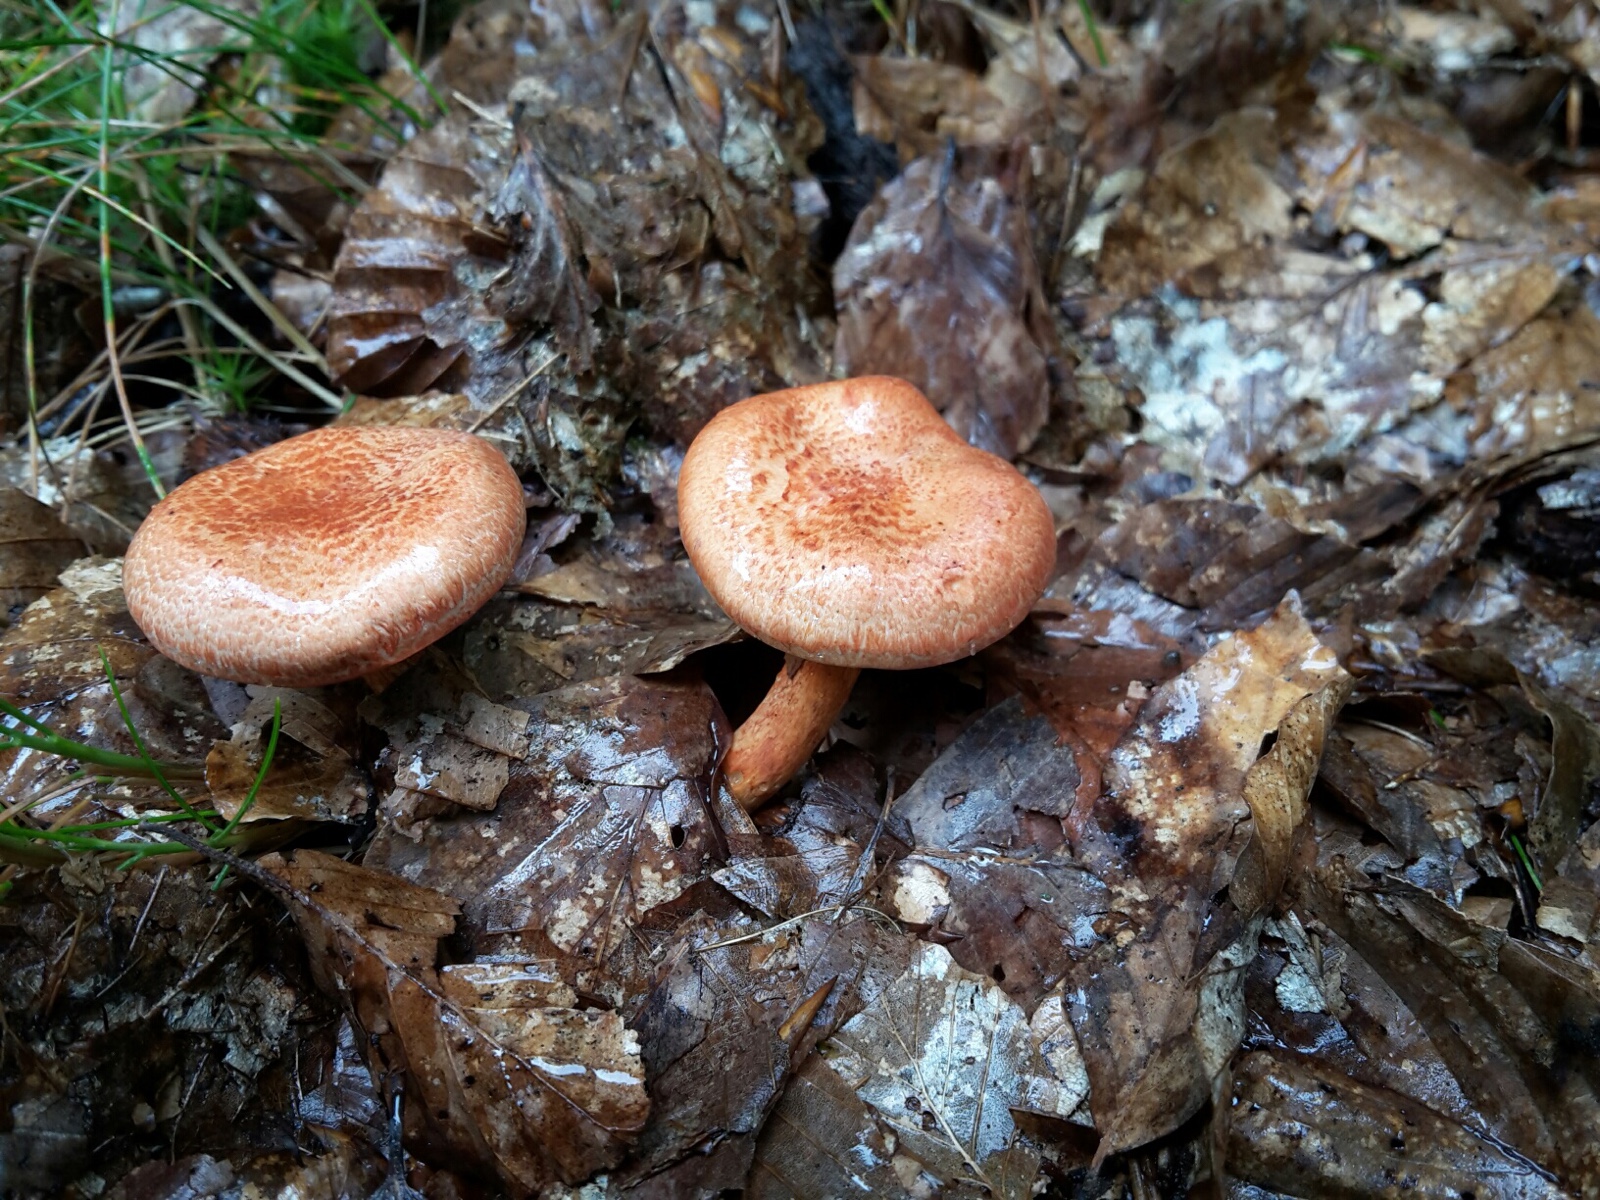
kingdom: Fungi
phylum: Basidiomycota
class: Agaricomycetes
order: Agaricales
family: Cortinariaceae
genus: Cortinarius
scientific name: Cortinarius bolaris
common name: cinnoberskællet slørhat
